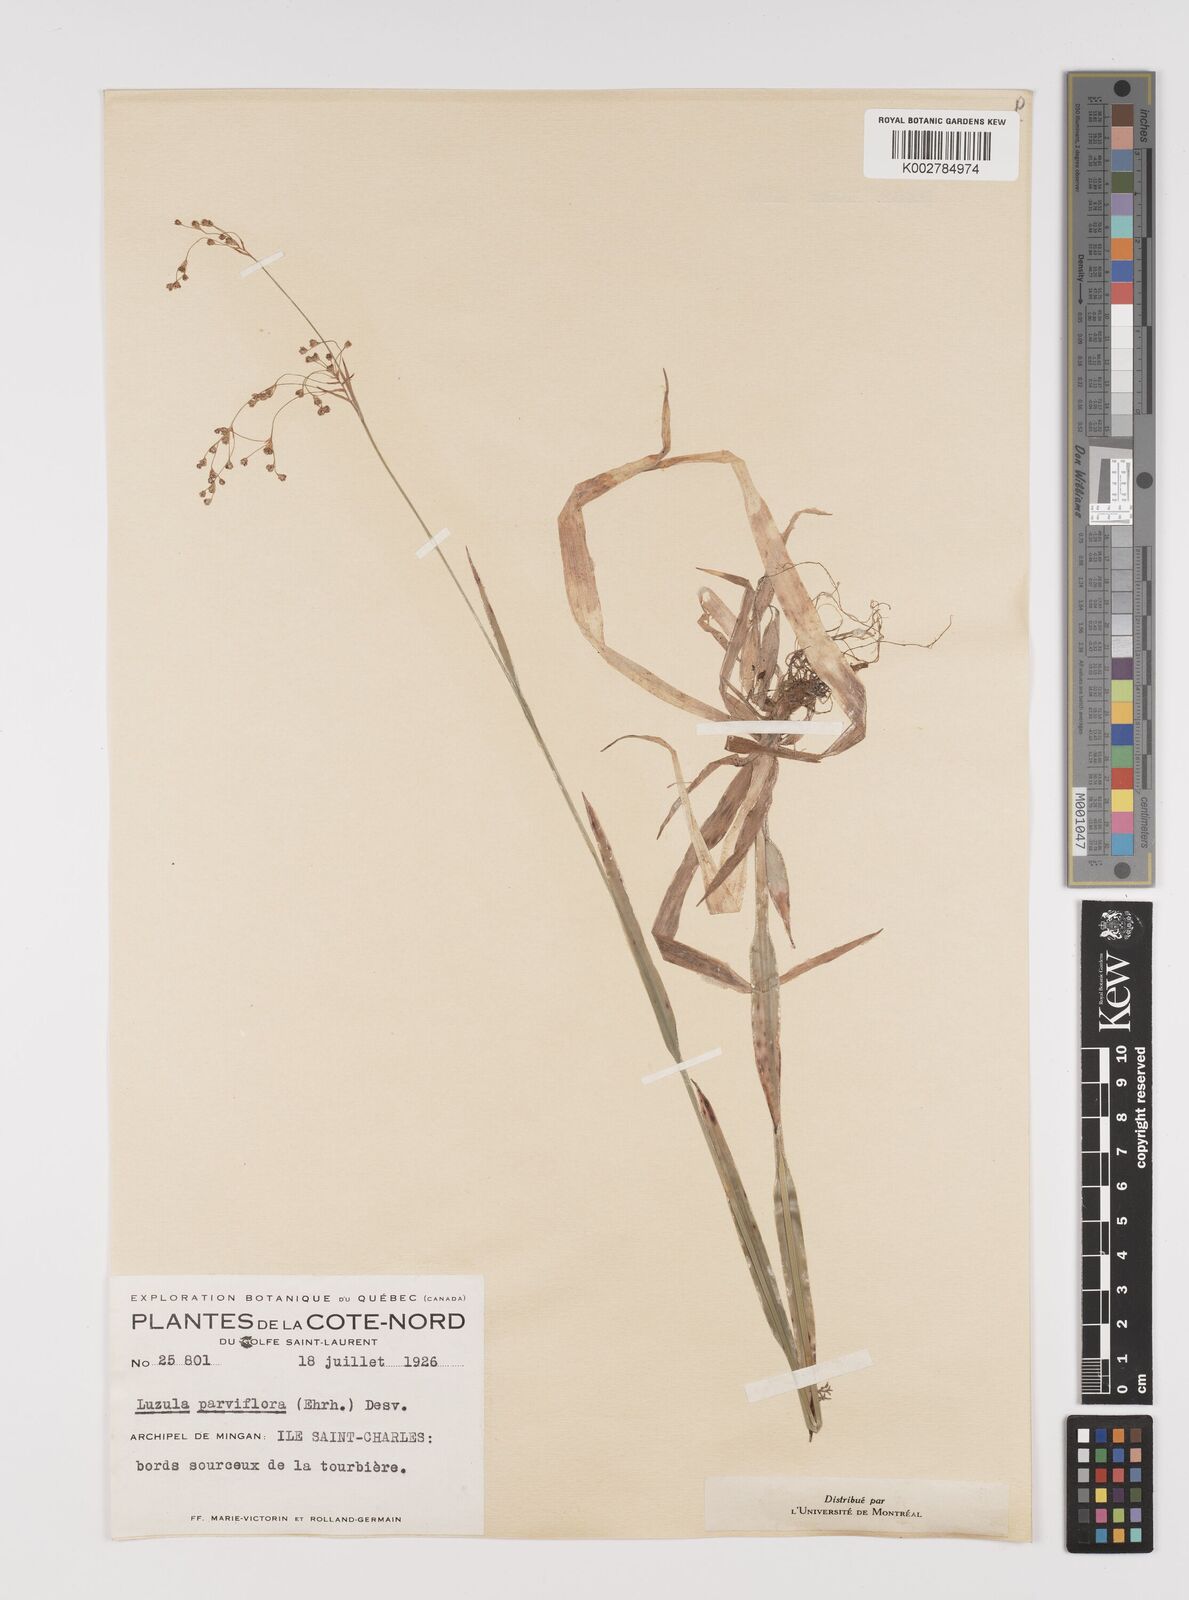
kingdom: Plantae
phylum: Tracheophyta
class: Liliopsida
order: Poales
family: Juncaceae
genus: Luzula
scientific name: Luzula parviflora
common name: Millet woodrush
